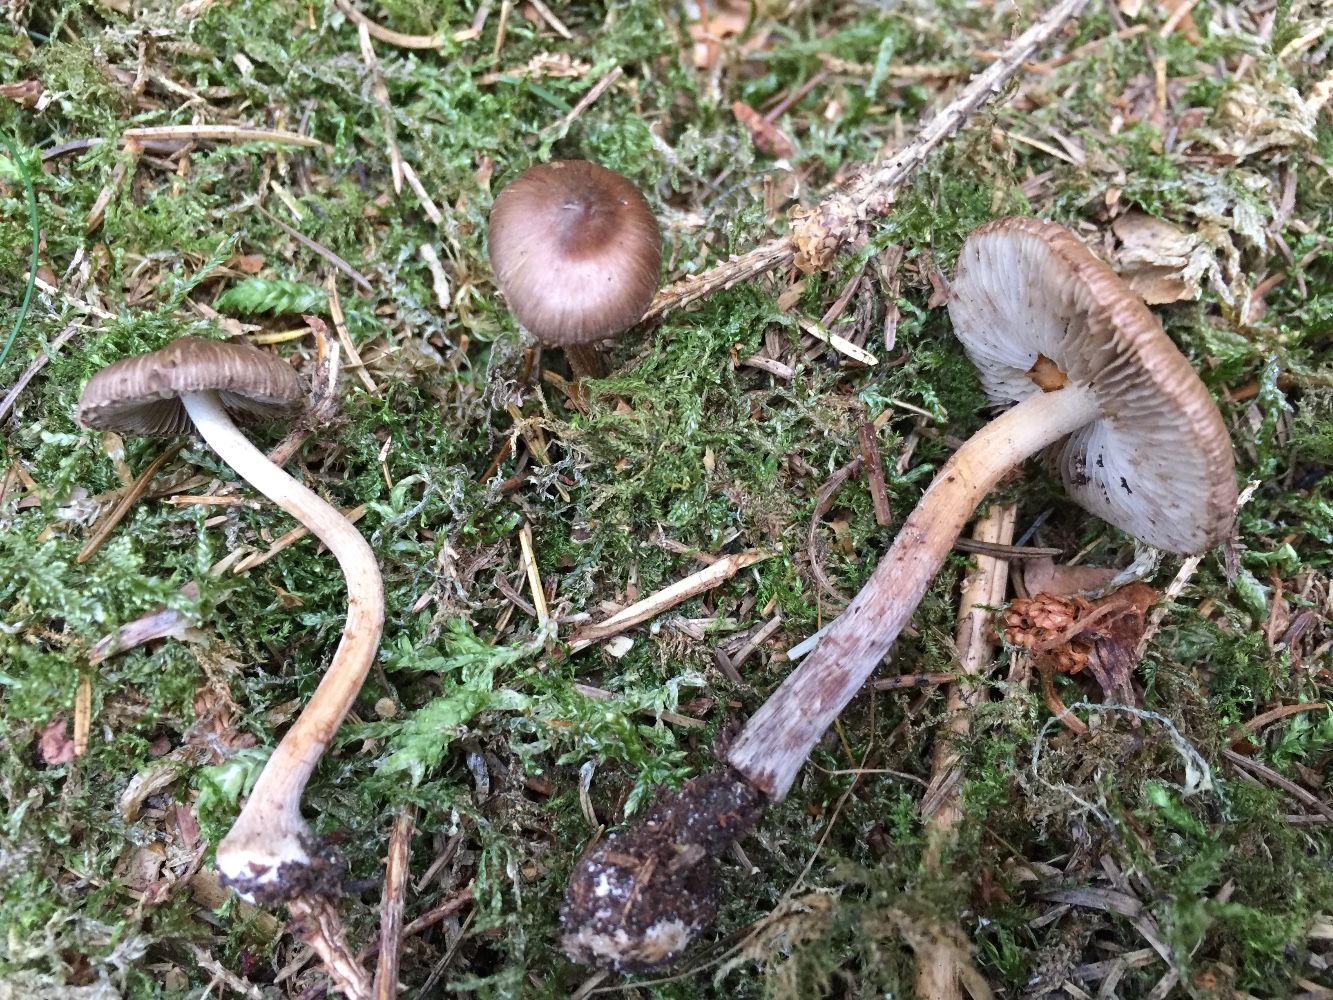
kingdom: Fungi
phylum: Basidiomycota
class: Agaricomycetes
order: Agaricales
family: Inocybaceae
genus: Inocybe
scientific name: Inocybe napipes
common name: roeknoldet trævlhat
